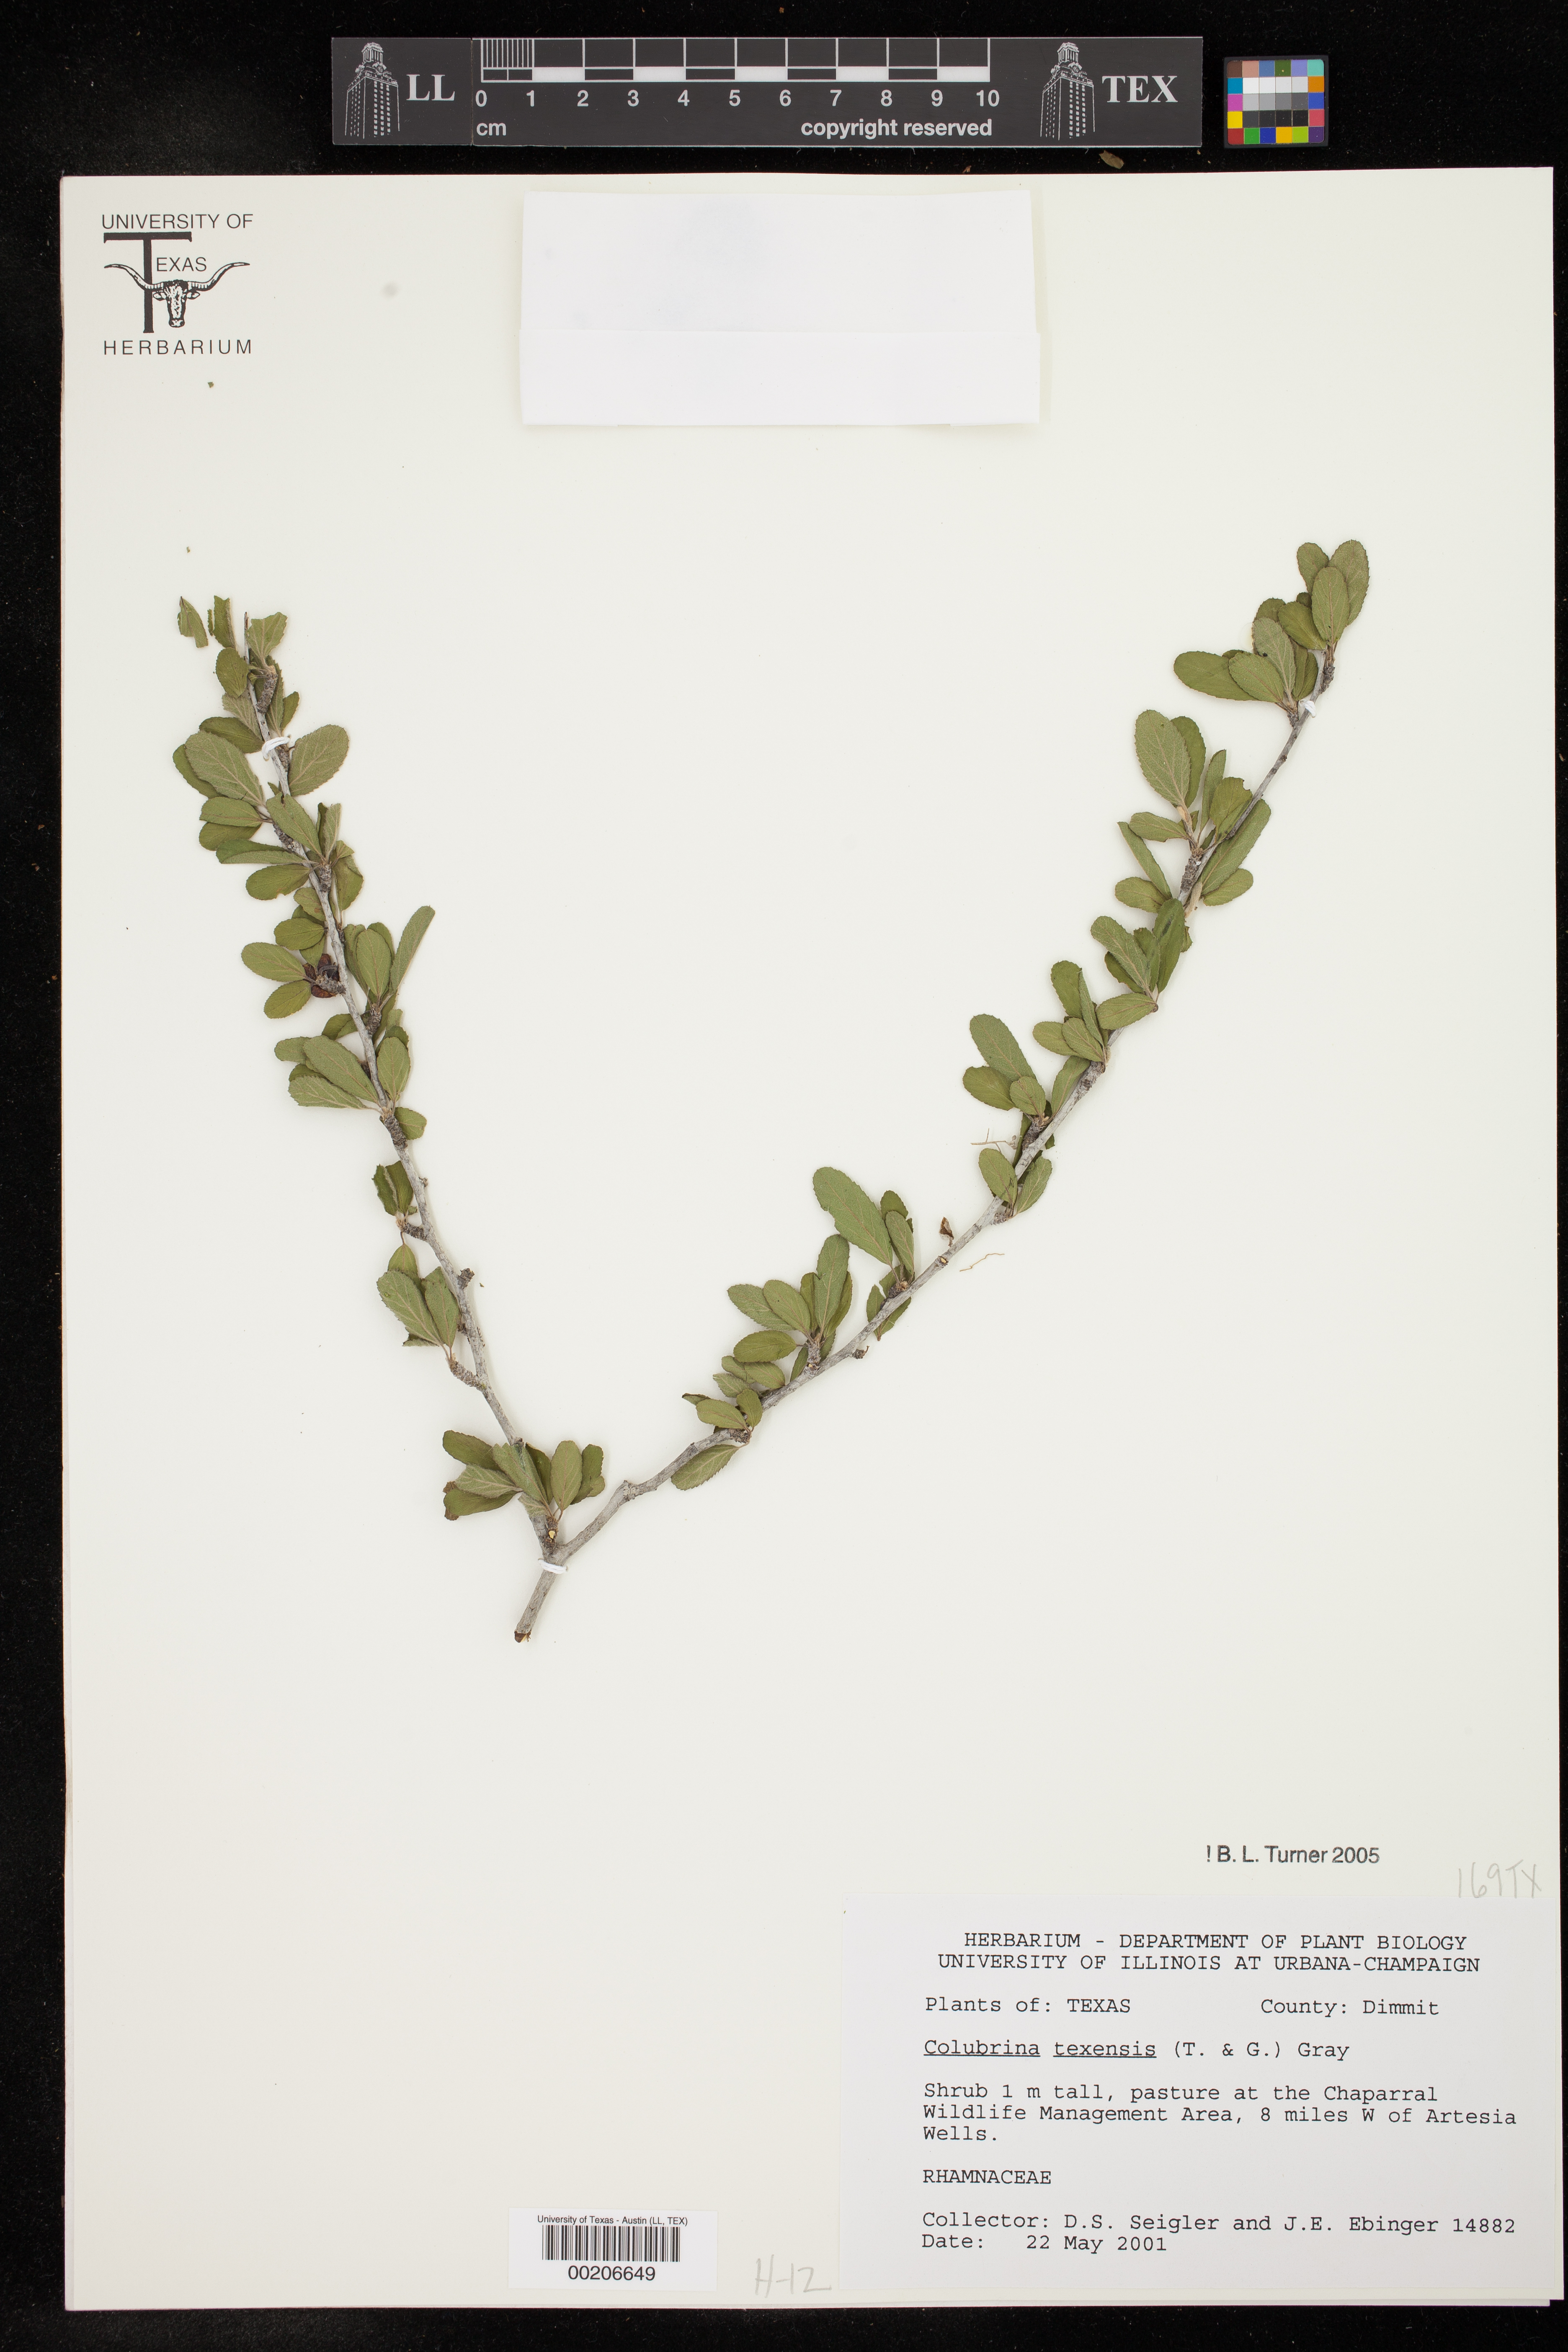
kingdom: Plantae
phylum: Tracheophyta
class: Magnoliopsida
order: Rosales
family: Rhamnaceae
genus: Colubrina
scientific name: Colubrina texensis
